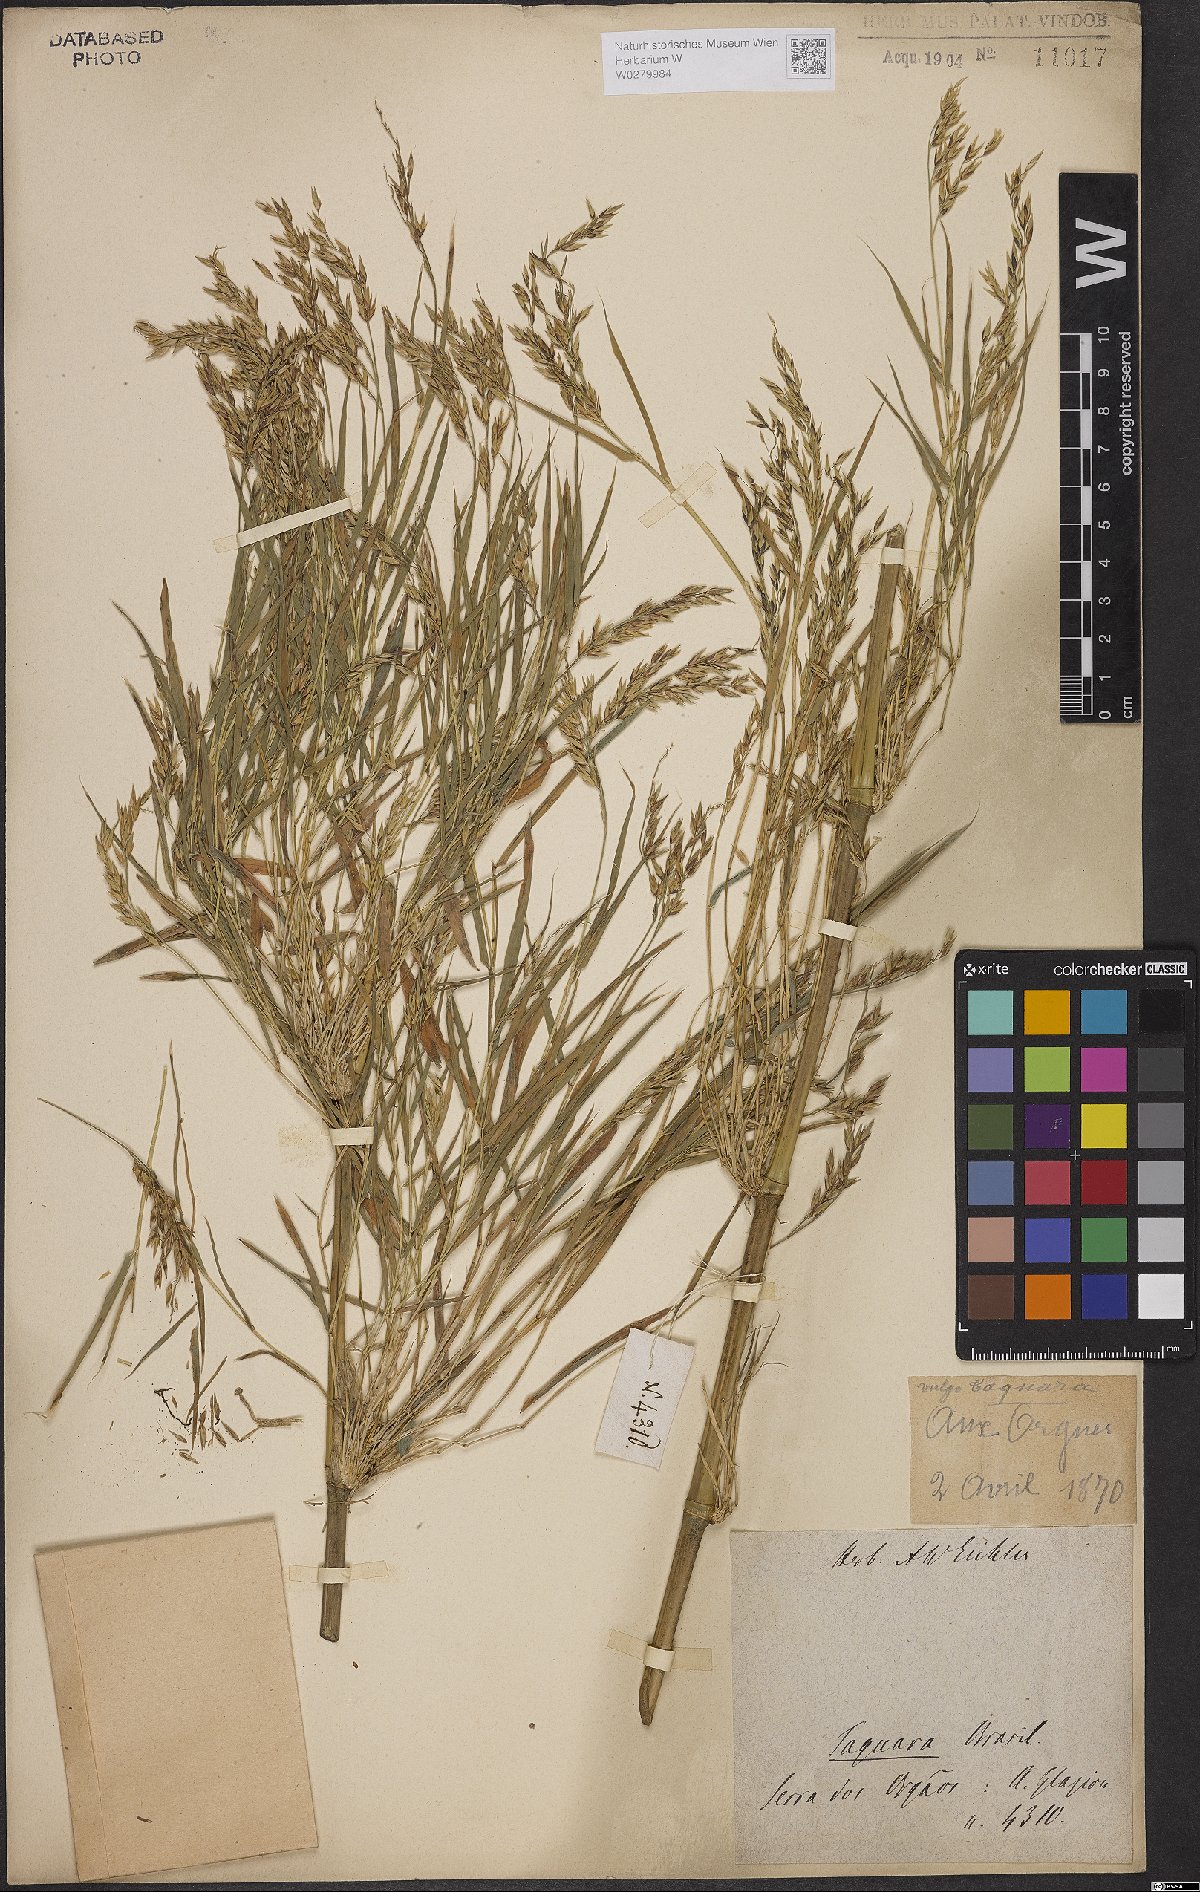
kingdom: Plantae
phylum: Tracheophyta
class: Liliopsida
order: Poales
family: Poaceae
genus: Bambusa
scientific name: Bambusa
